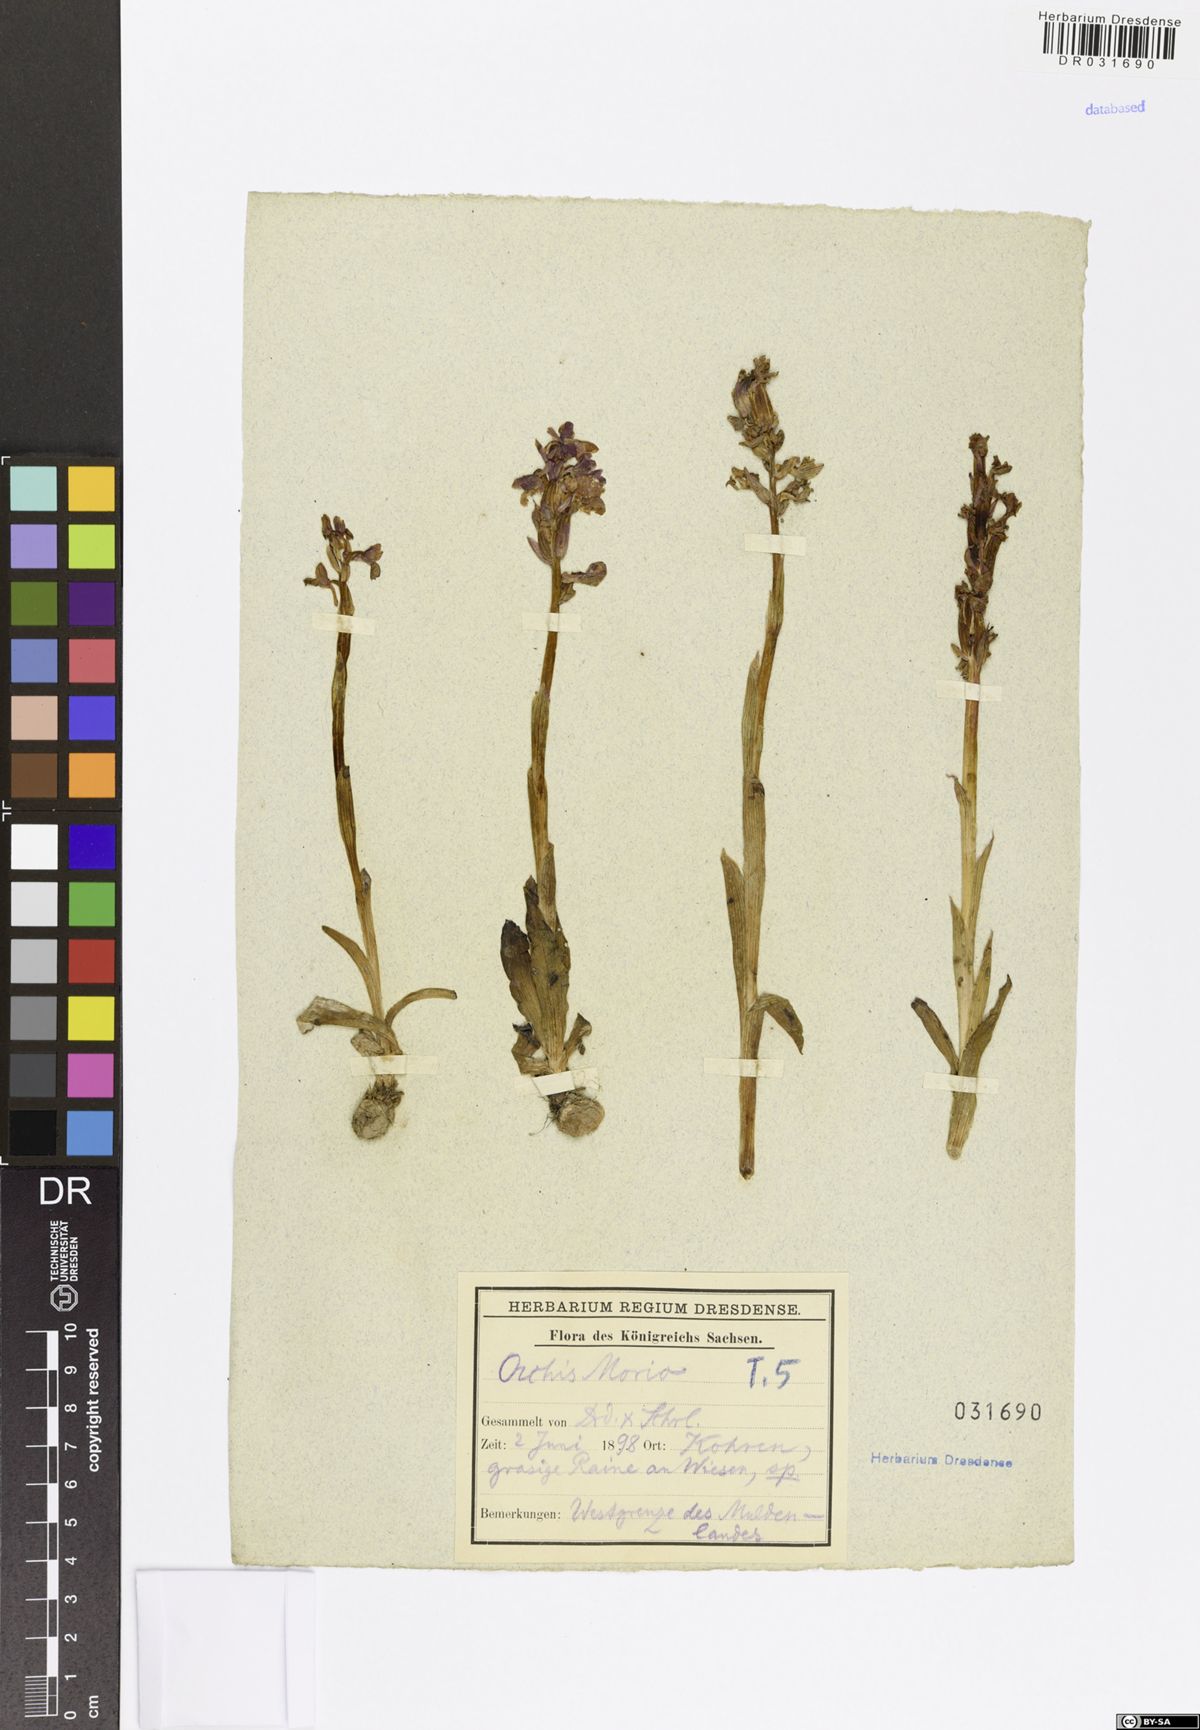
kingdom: Plantae
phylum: Tracheophyta
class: Liliopsida
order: Asparagales
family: Orchidaceae
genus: Anacamptis
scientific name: Anacamptis morio
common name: Green-winged orchid
